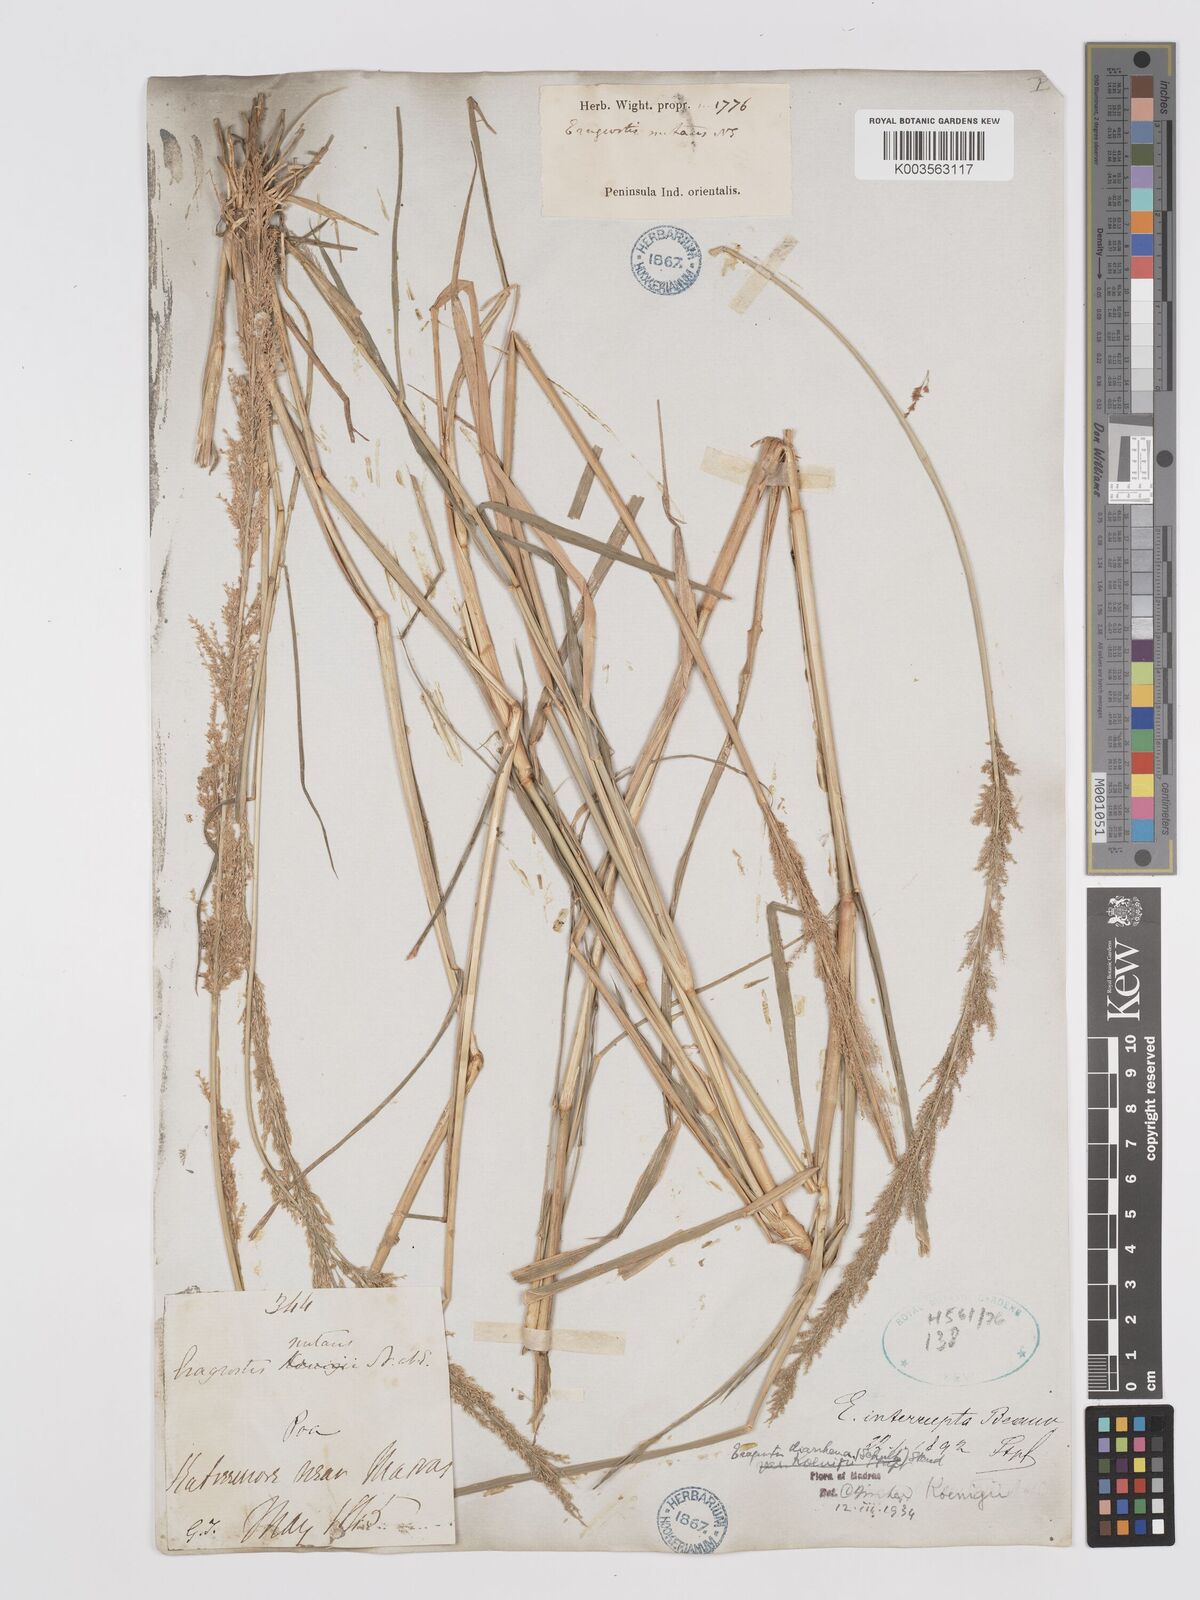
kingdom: Plantae
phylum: Tracheophyta
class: Liliopsida
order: Poales
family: Poaceae
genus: Eragrostis
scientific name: Eragrostis japonica
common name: Pond lovegrass
